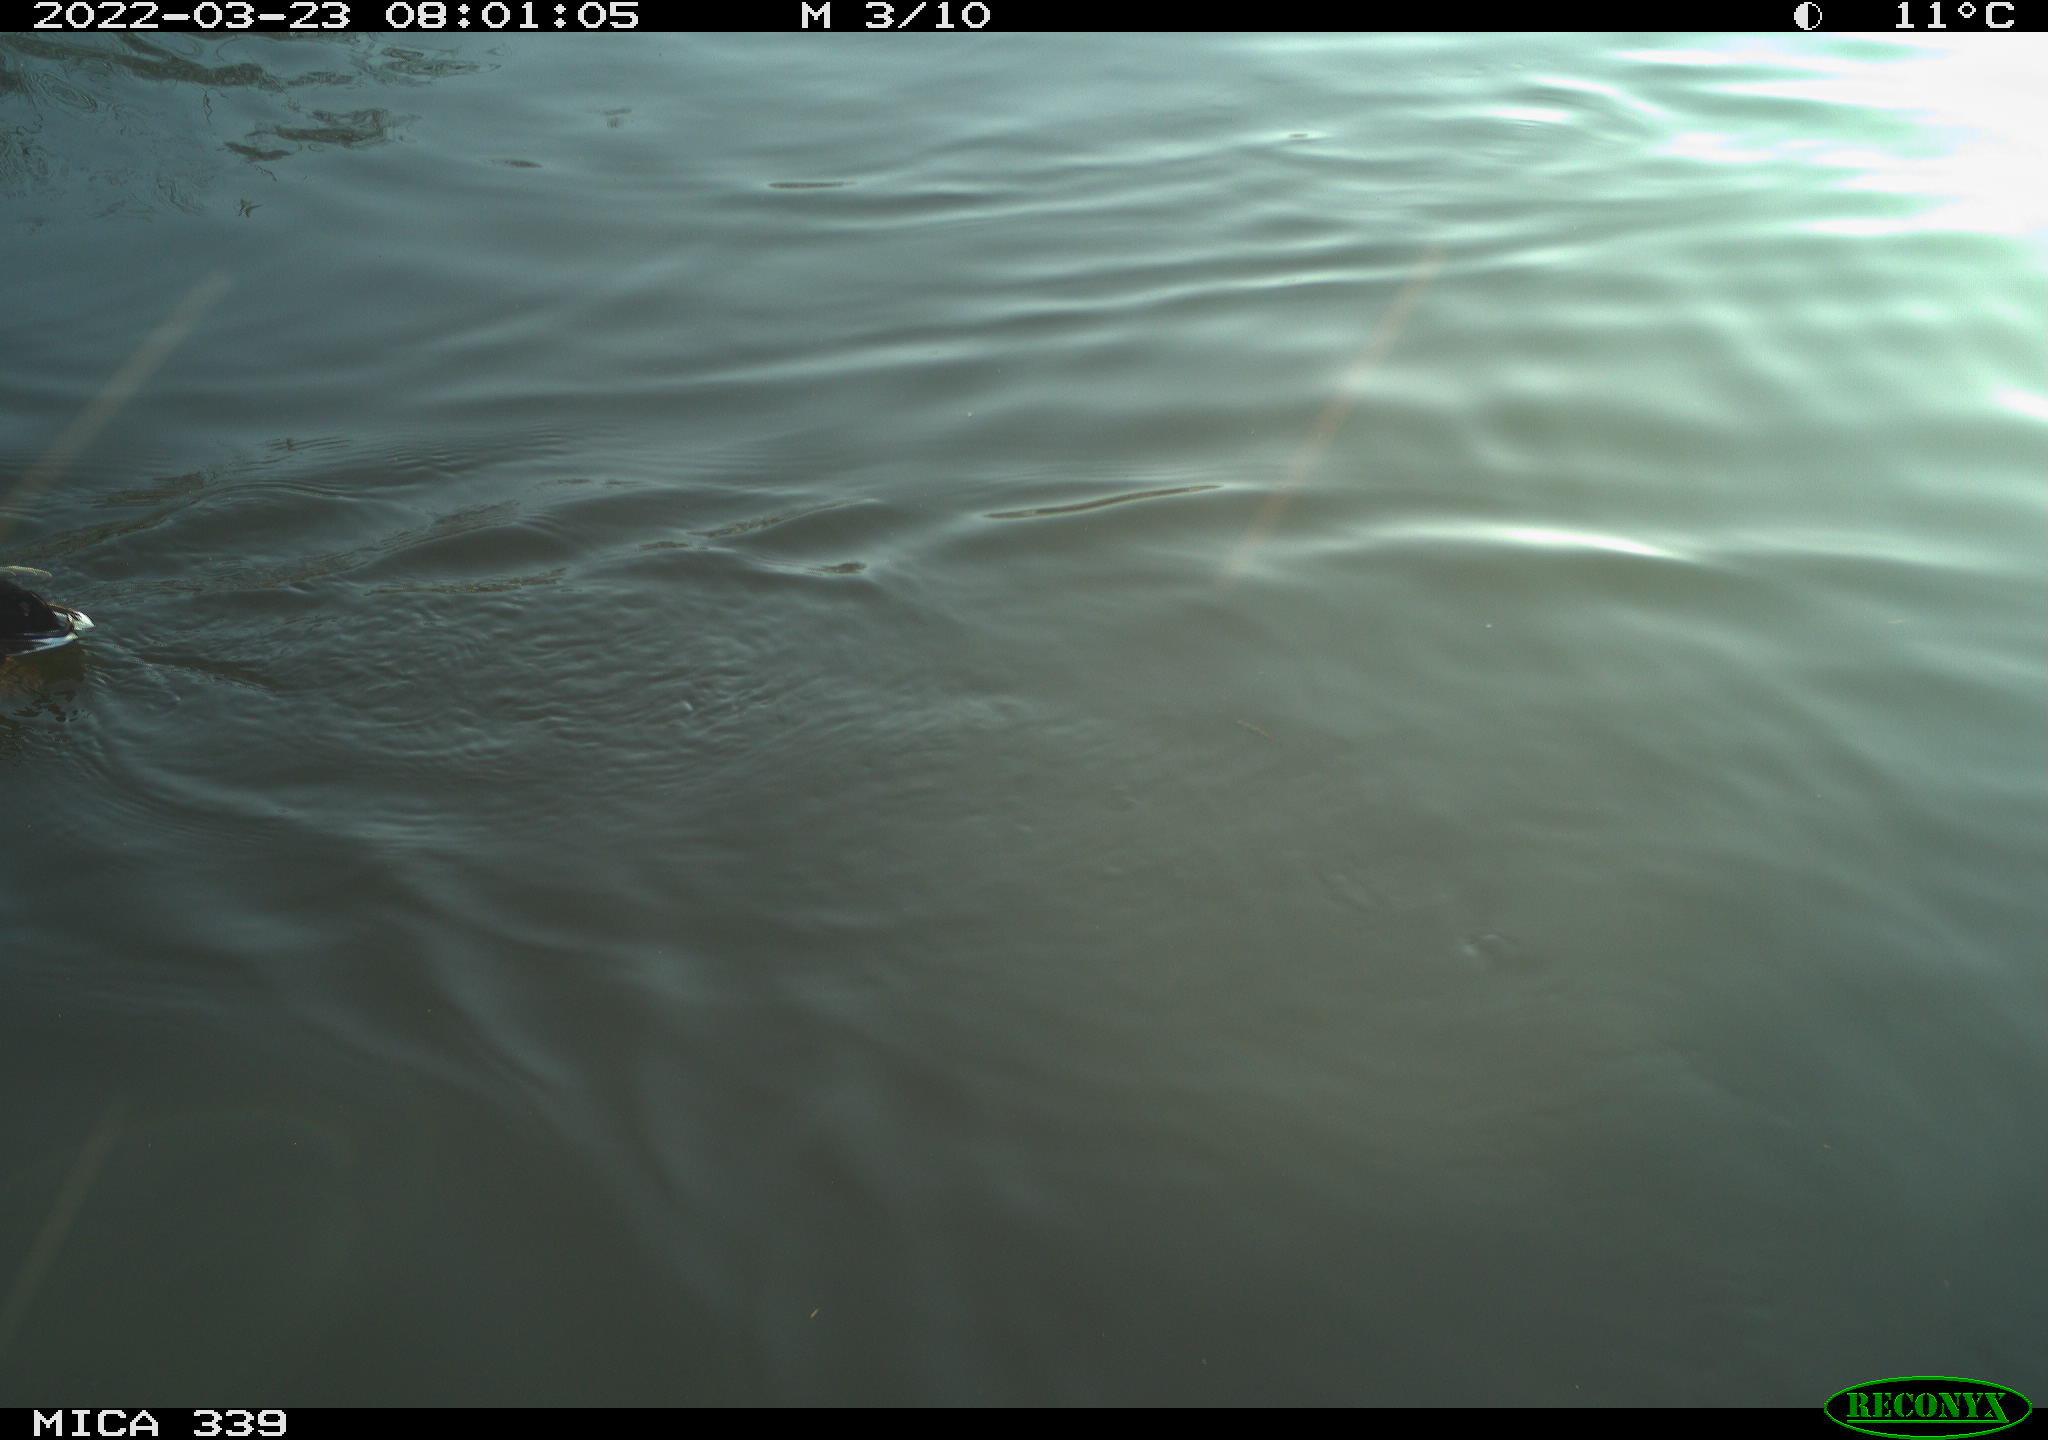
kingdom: Animalia
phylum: Chordata
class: Aves
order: Anseriformes
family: Anatidae
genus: Anas
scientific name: Anas platyrhynchos
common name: Mallard
